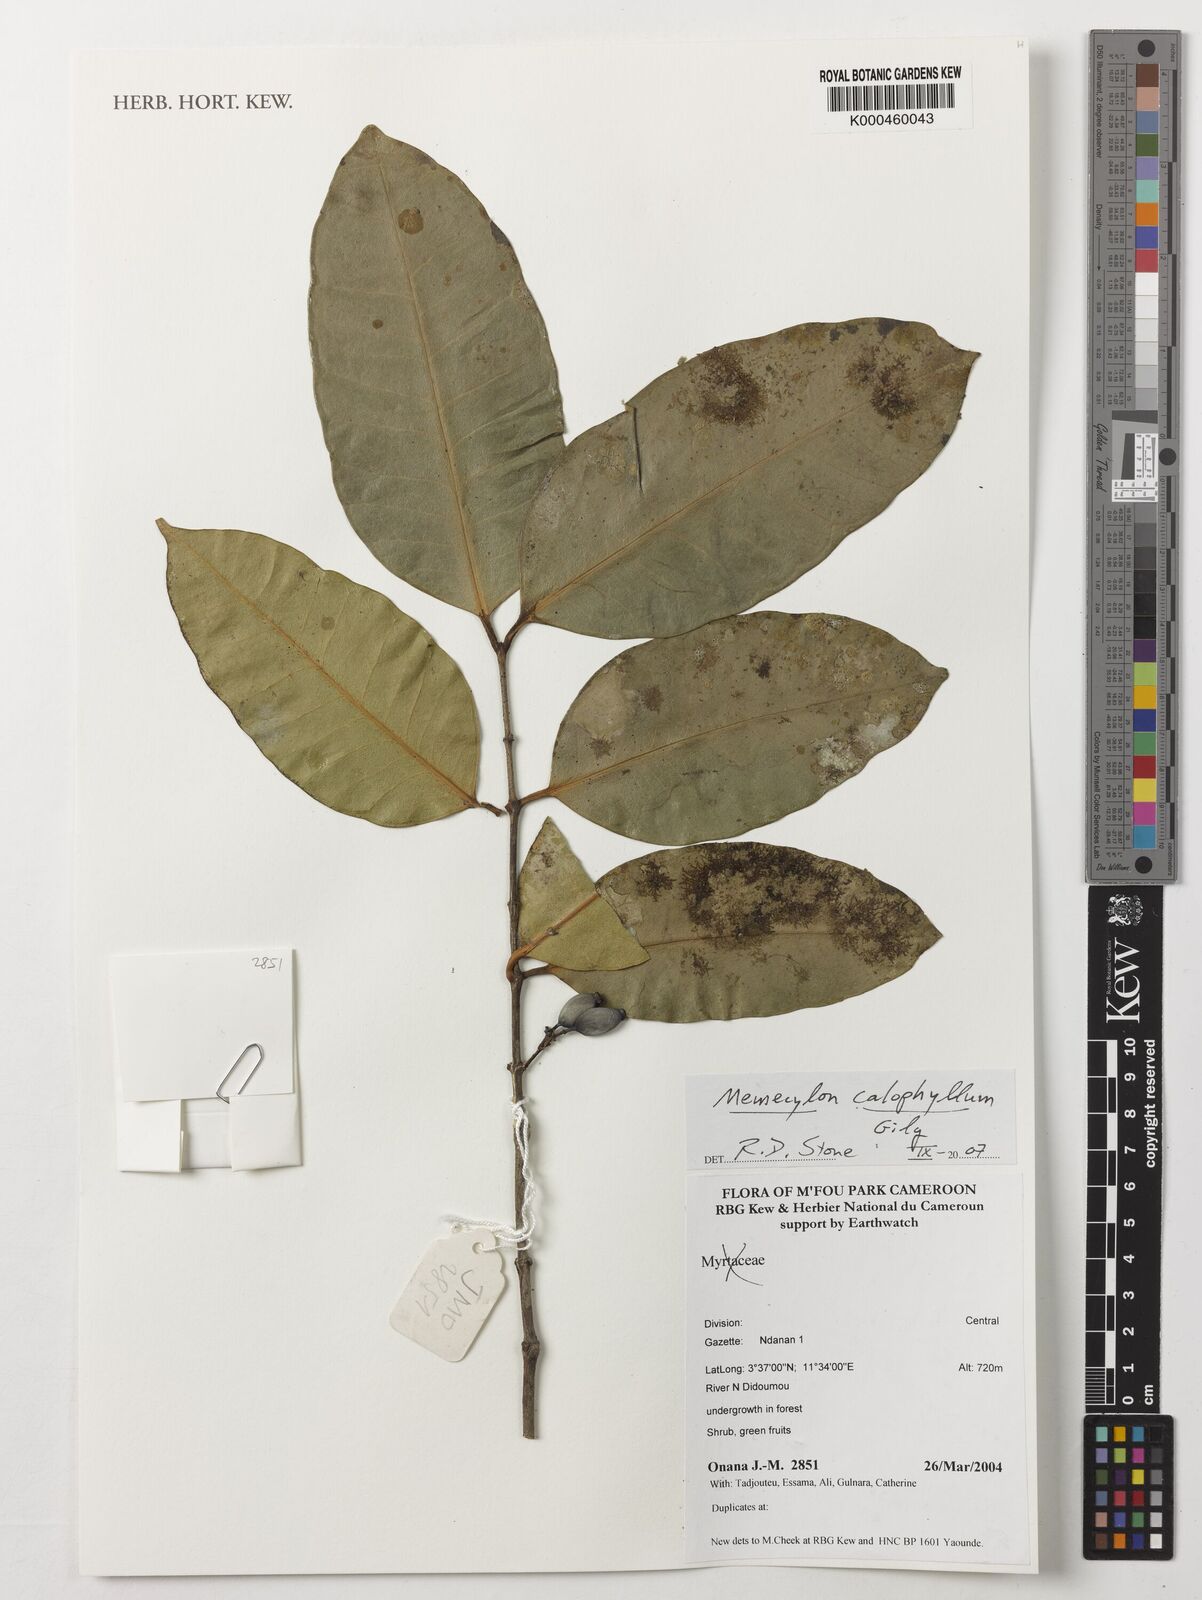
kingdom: Plantae
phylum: Tracheophyta
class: Magnoliopsida
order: Myrtales
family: Melastomataceae
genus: Memecylon
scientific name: Memecylon calophyllum
